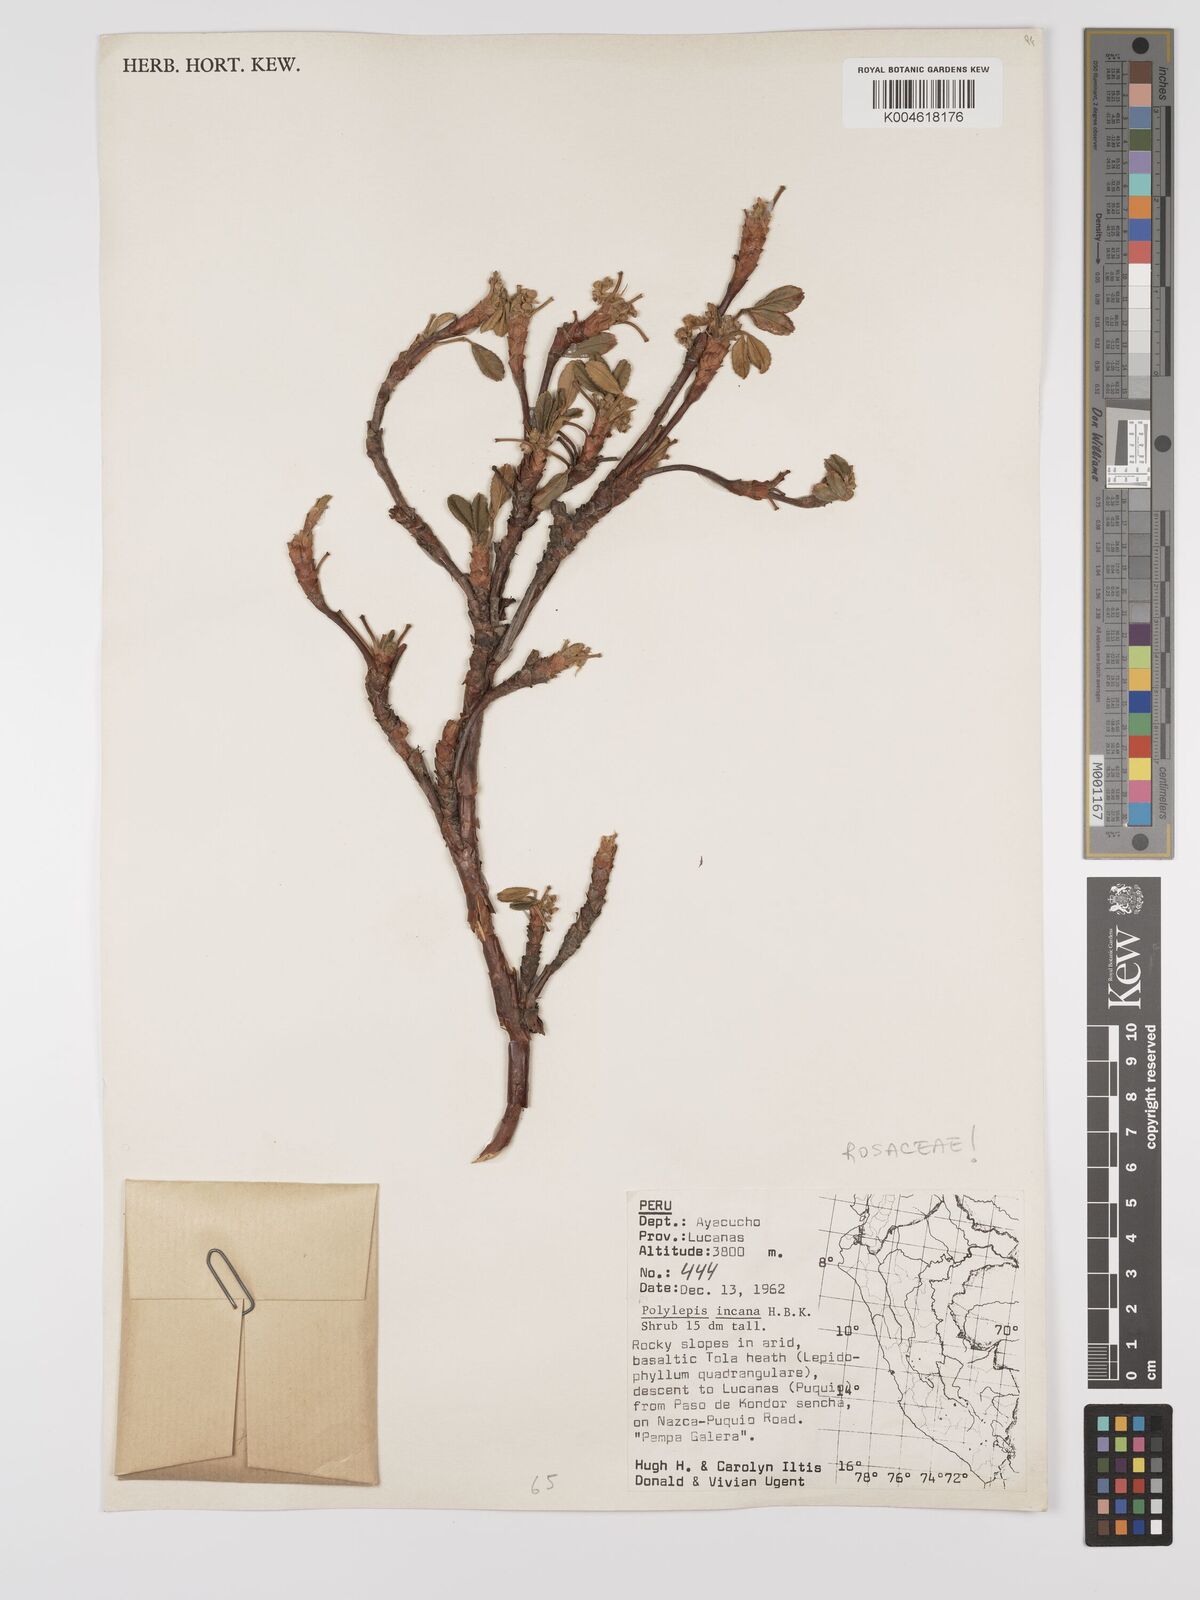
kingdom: Plantae
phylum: Tracheophyta
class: Magnoliopsida
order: Rosales
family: Rosaceae
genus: Polylepis
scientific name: Polylepis incana
